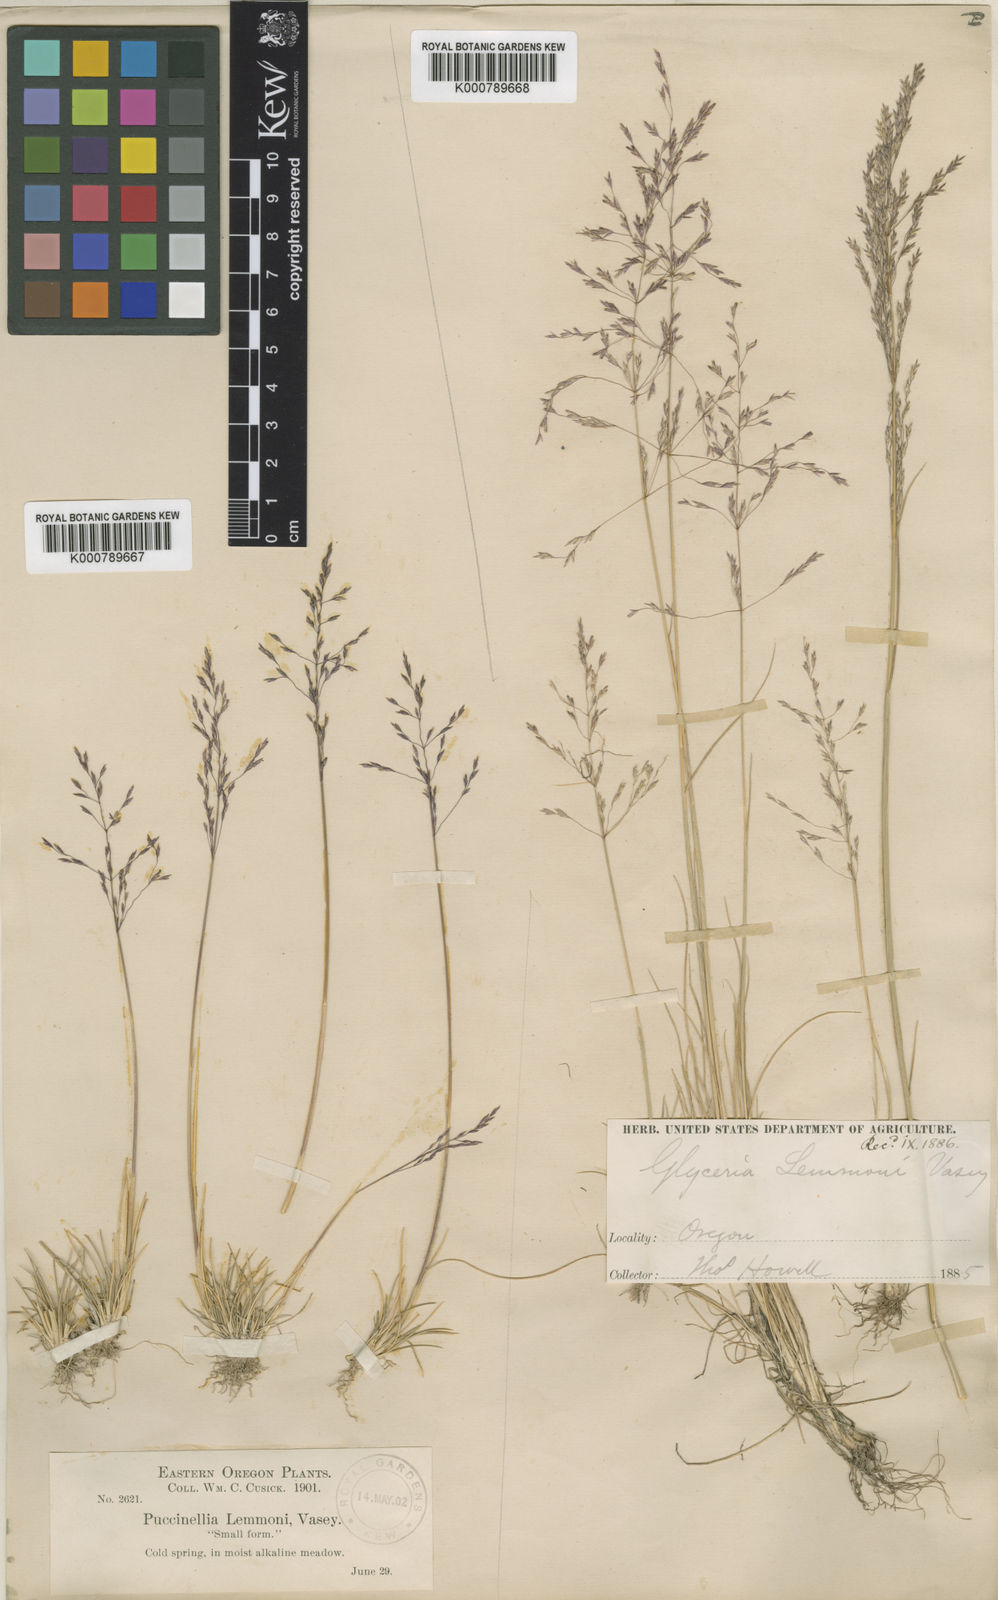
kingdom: Plantae
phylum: Tracheophyta
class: Liliopsida
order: Poales
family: Poaceae
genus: Puccinellia
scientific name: Puccinellia lemmonii
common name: Lemmon's alkali grass
